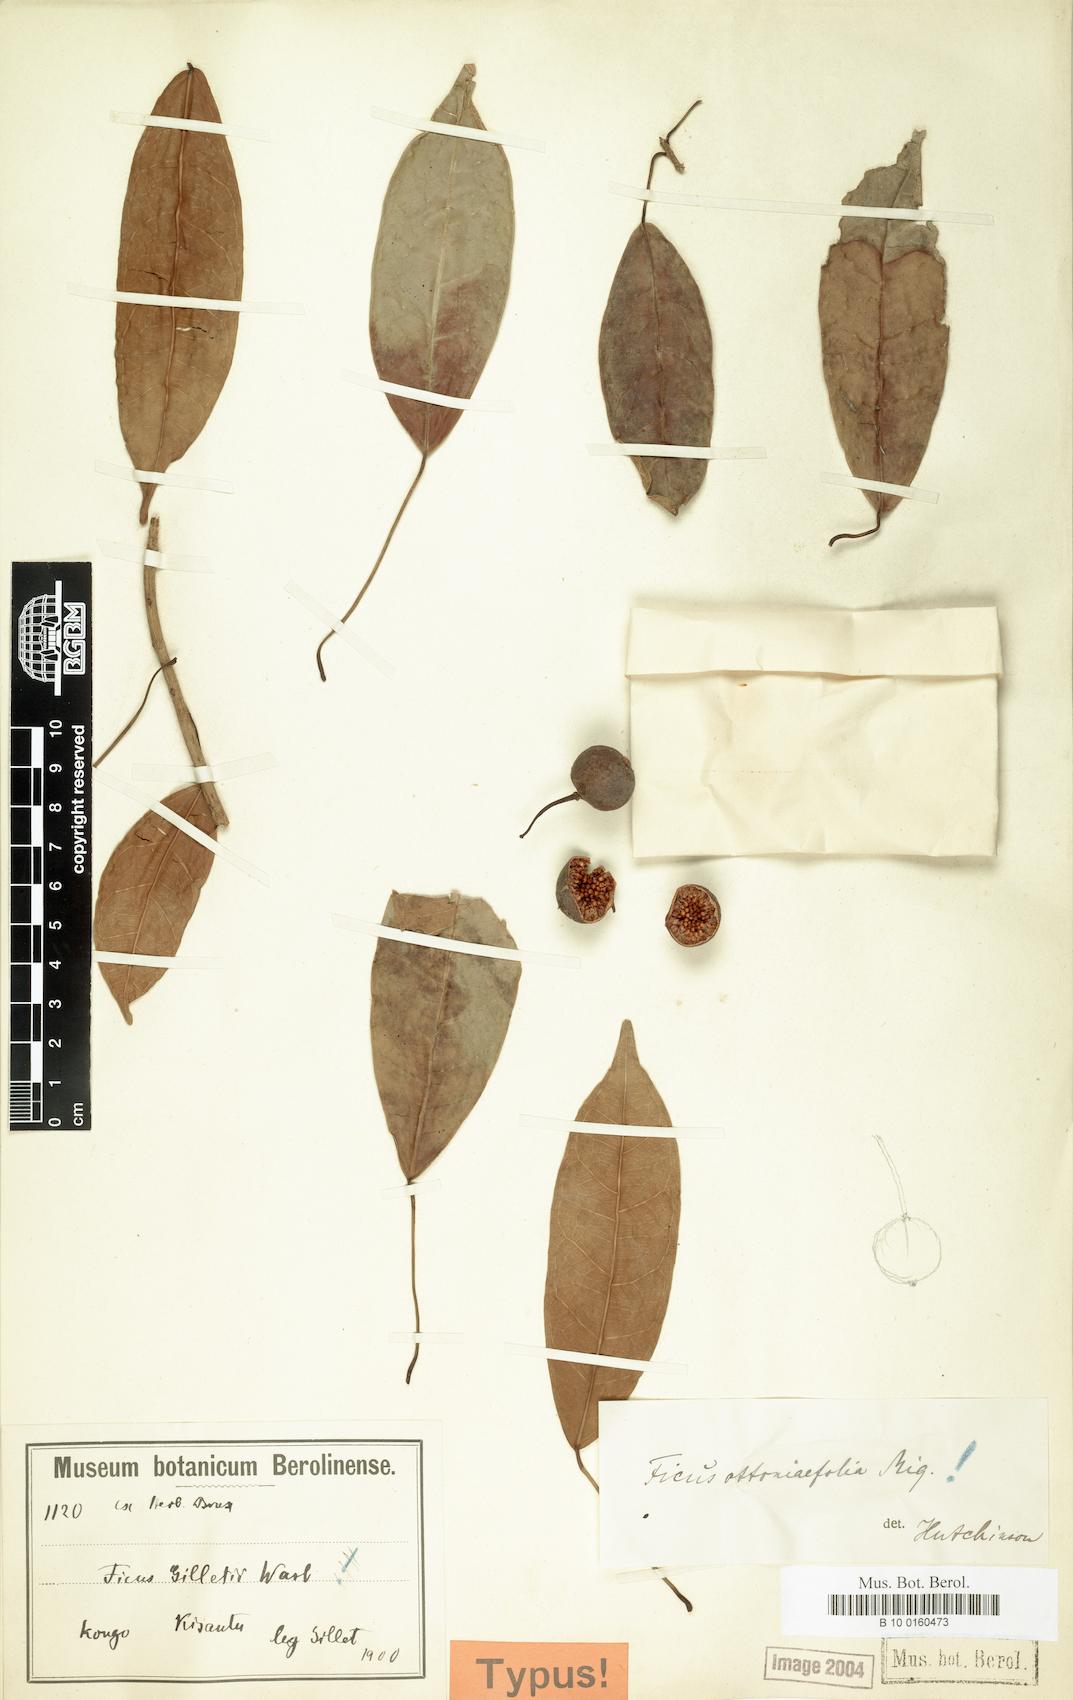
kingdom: Plantae
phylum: Tracheophyta
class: Magnoliopsida
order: Rosales
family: Moraceae
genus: Ficus
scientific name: Ficus ottoniifolia
